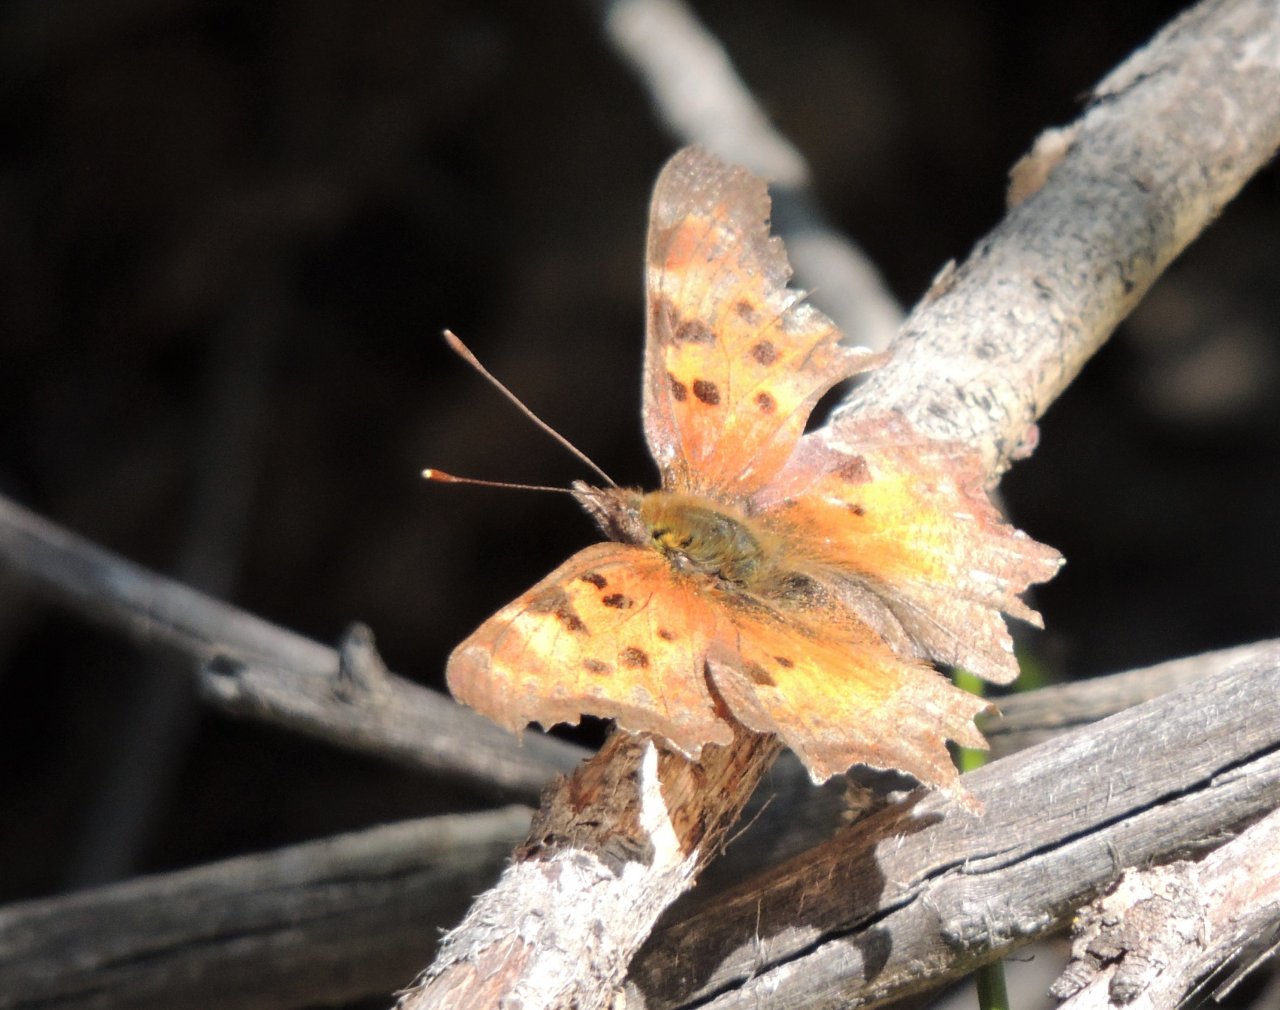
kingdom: Animalia
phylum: Arthropoda
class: Insecta
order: Lepidoptera
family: Nymphalidae
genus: Polygonia
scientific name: Polygonia gracilis
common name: Hoary Comma
